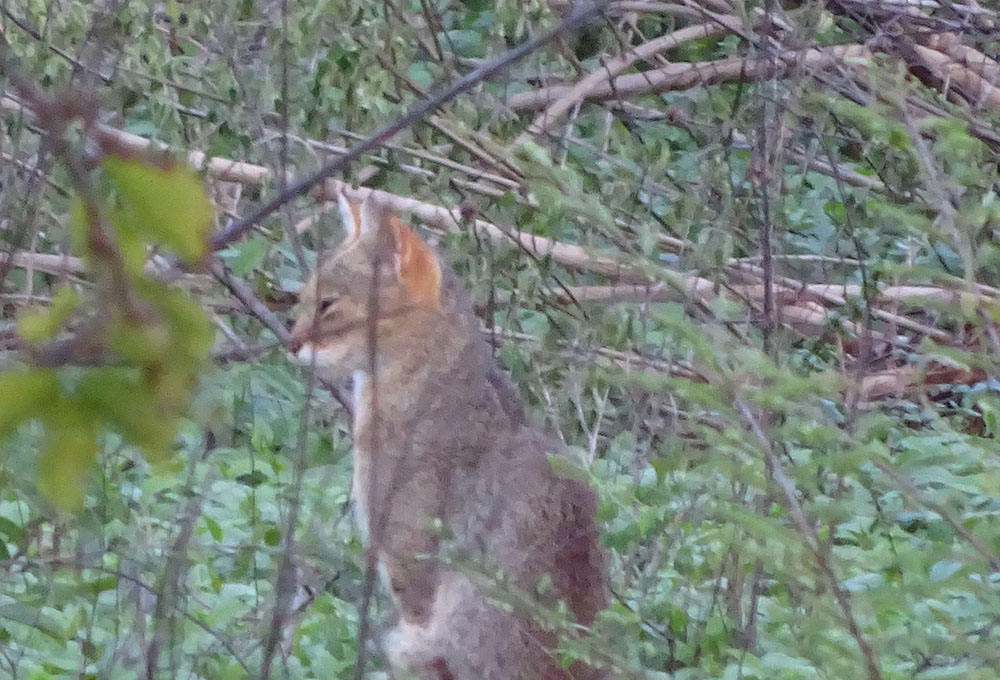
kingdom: Animalia
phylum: Chordata
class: Mammalia
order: Carnivora
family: Felidae
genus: Felis
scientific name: Felis chaus
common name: Jungle cat
